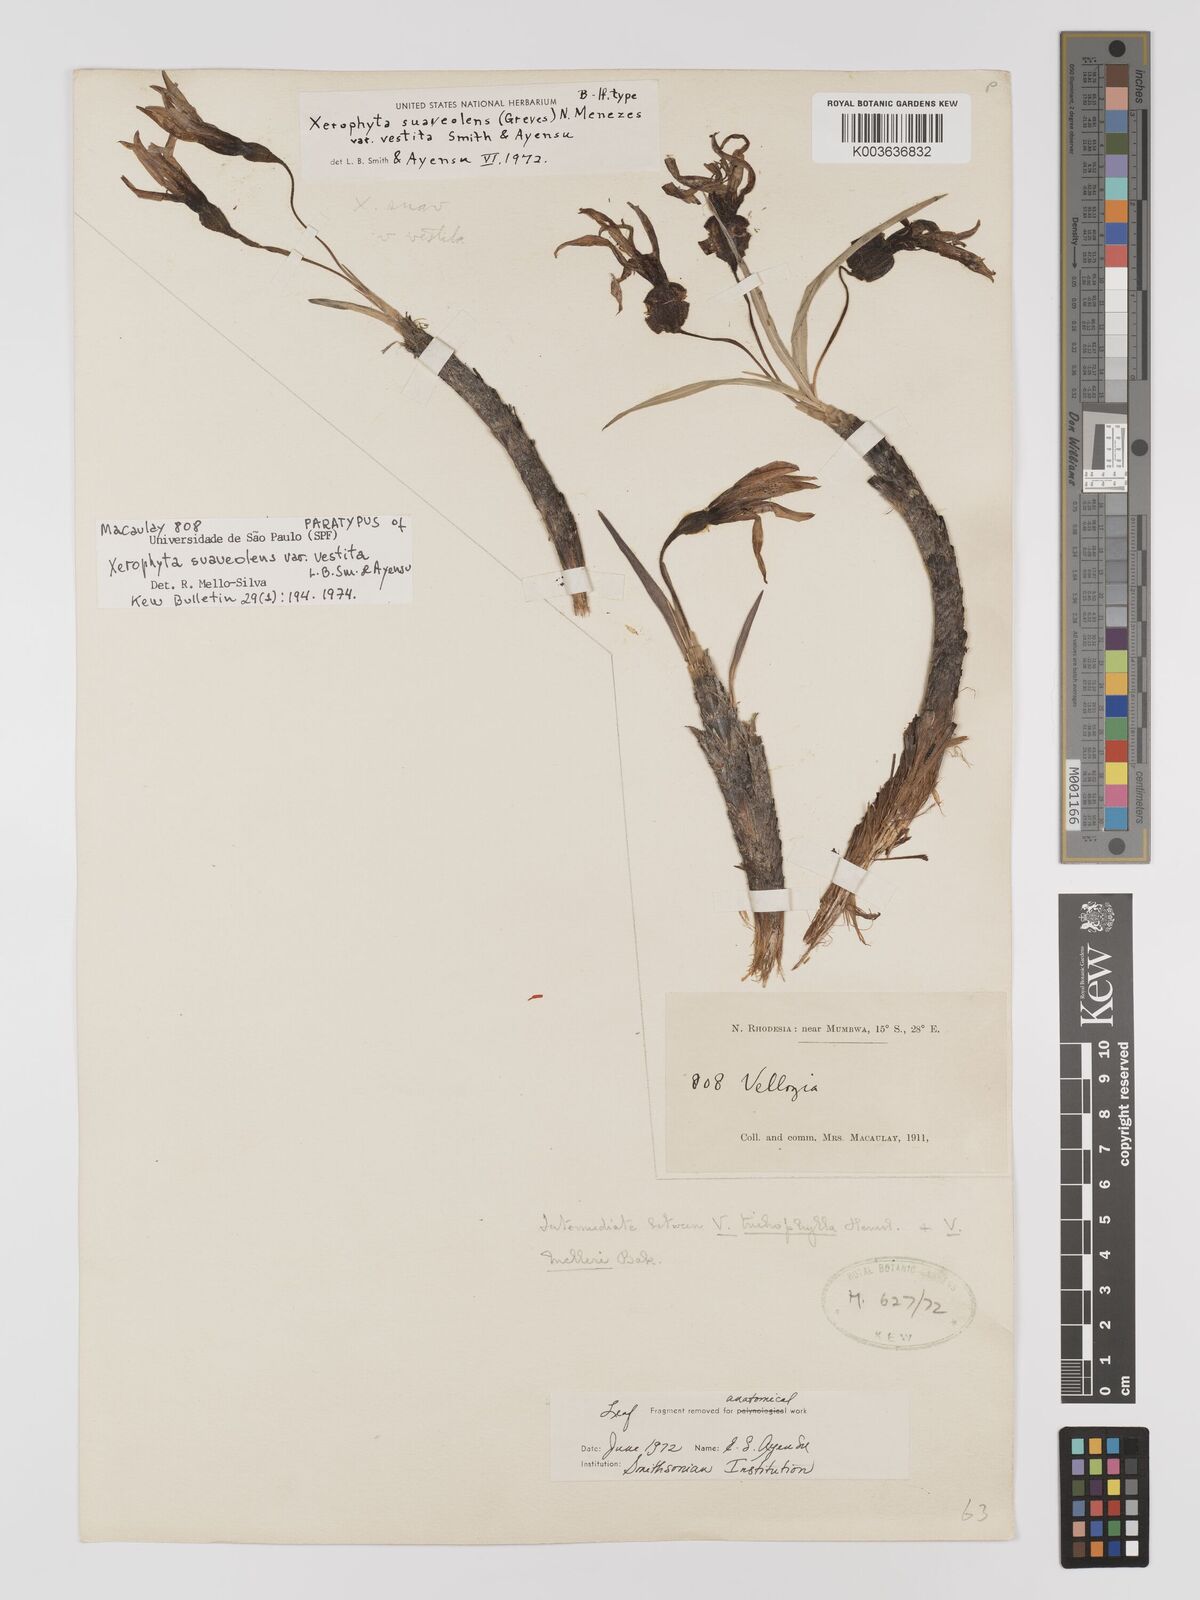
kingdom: Plantae
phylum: Tracheophyta
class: Liliopsida
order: Pandanales
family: Velloziaceae
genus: Xerophyta
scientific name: Xerophyta suaveolens
